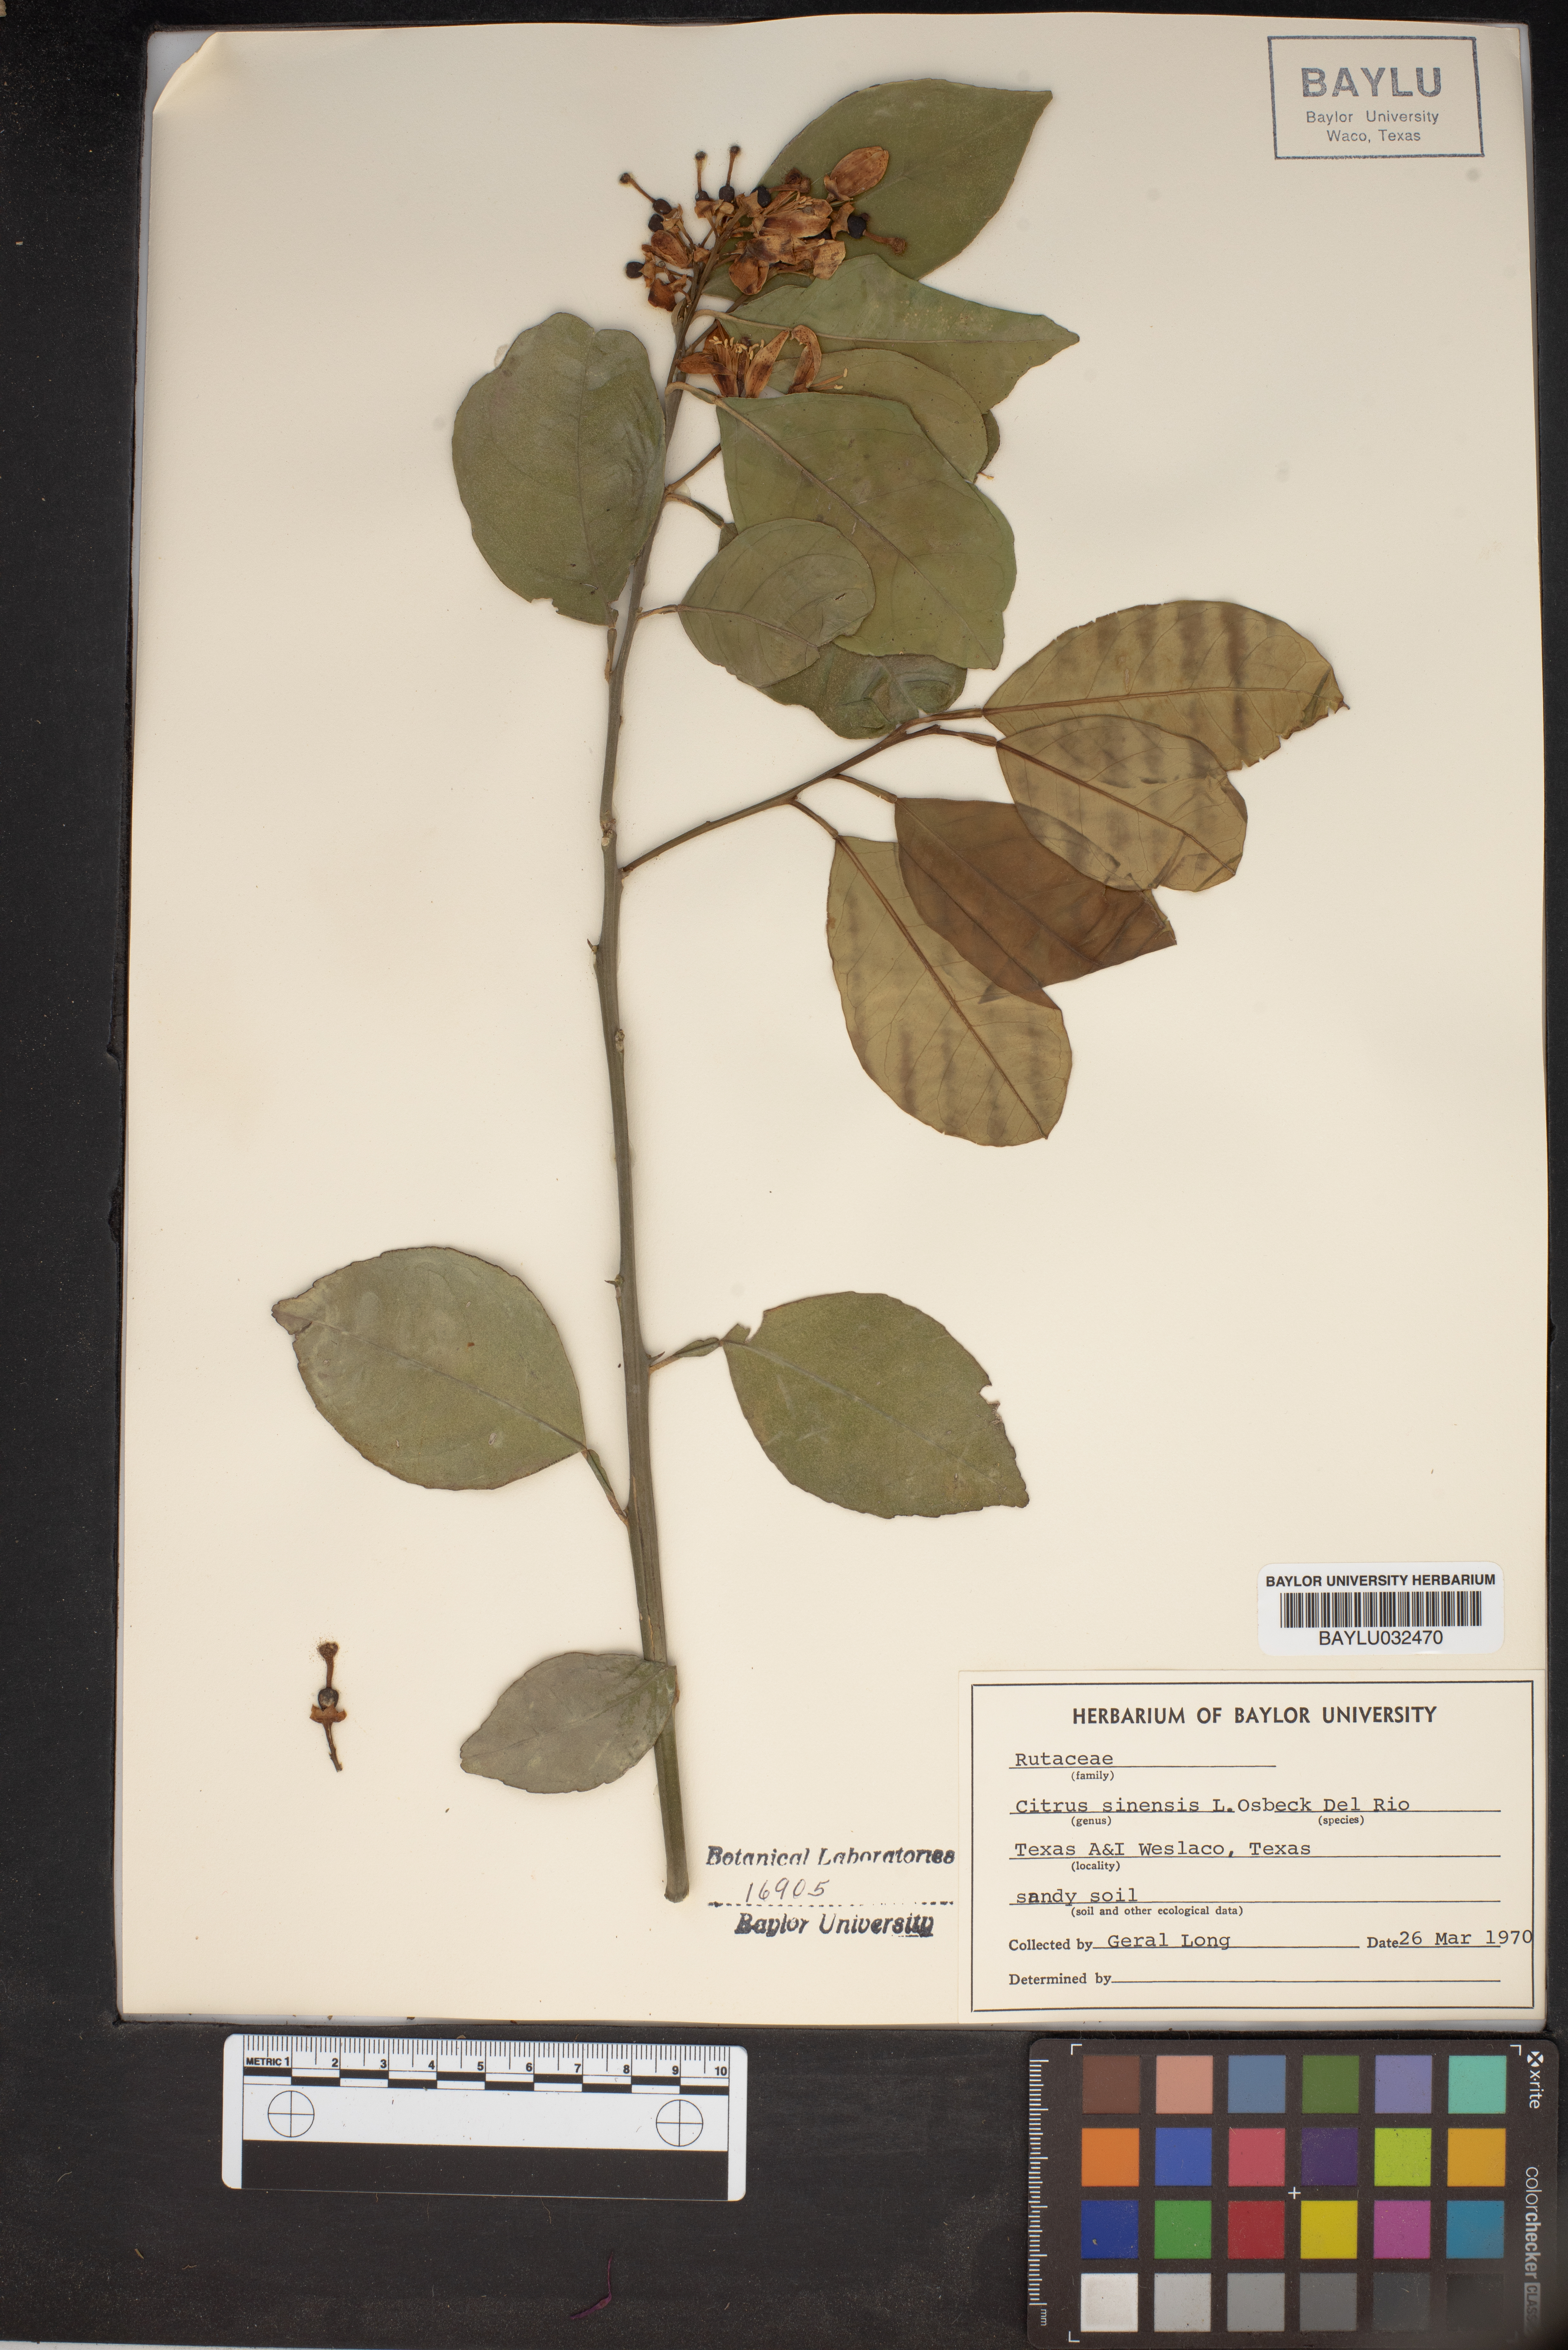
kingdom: Plantae
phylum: Tracheophyta
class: Magnoliopsida
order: Sapindales
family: Rutaceae
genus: Citrus
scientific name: Citrus aurantium
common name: Sour orange
